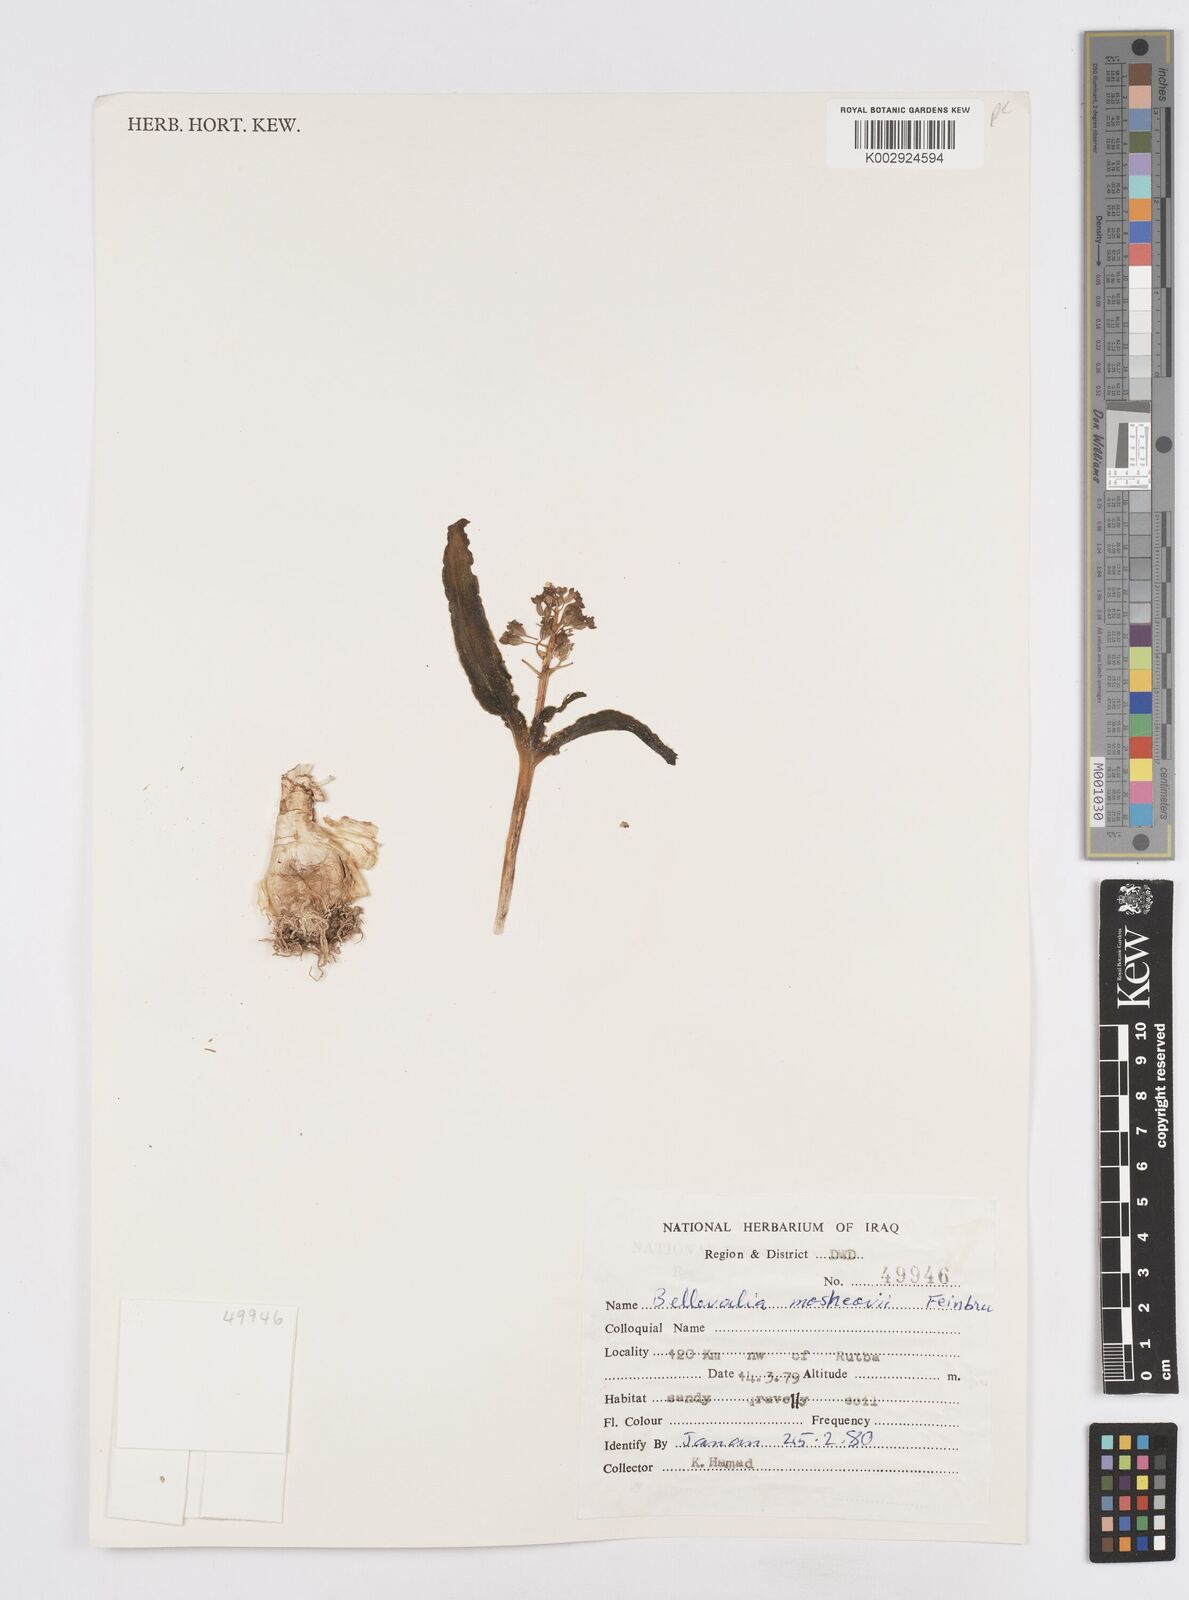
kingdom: Plantae
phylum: Tracheophyta
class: Liliopsida
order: Asparagales
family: Asparagaceae
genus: Bellevalia
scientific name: Bellevalia mosheovii
